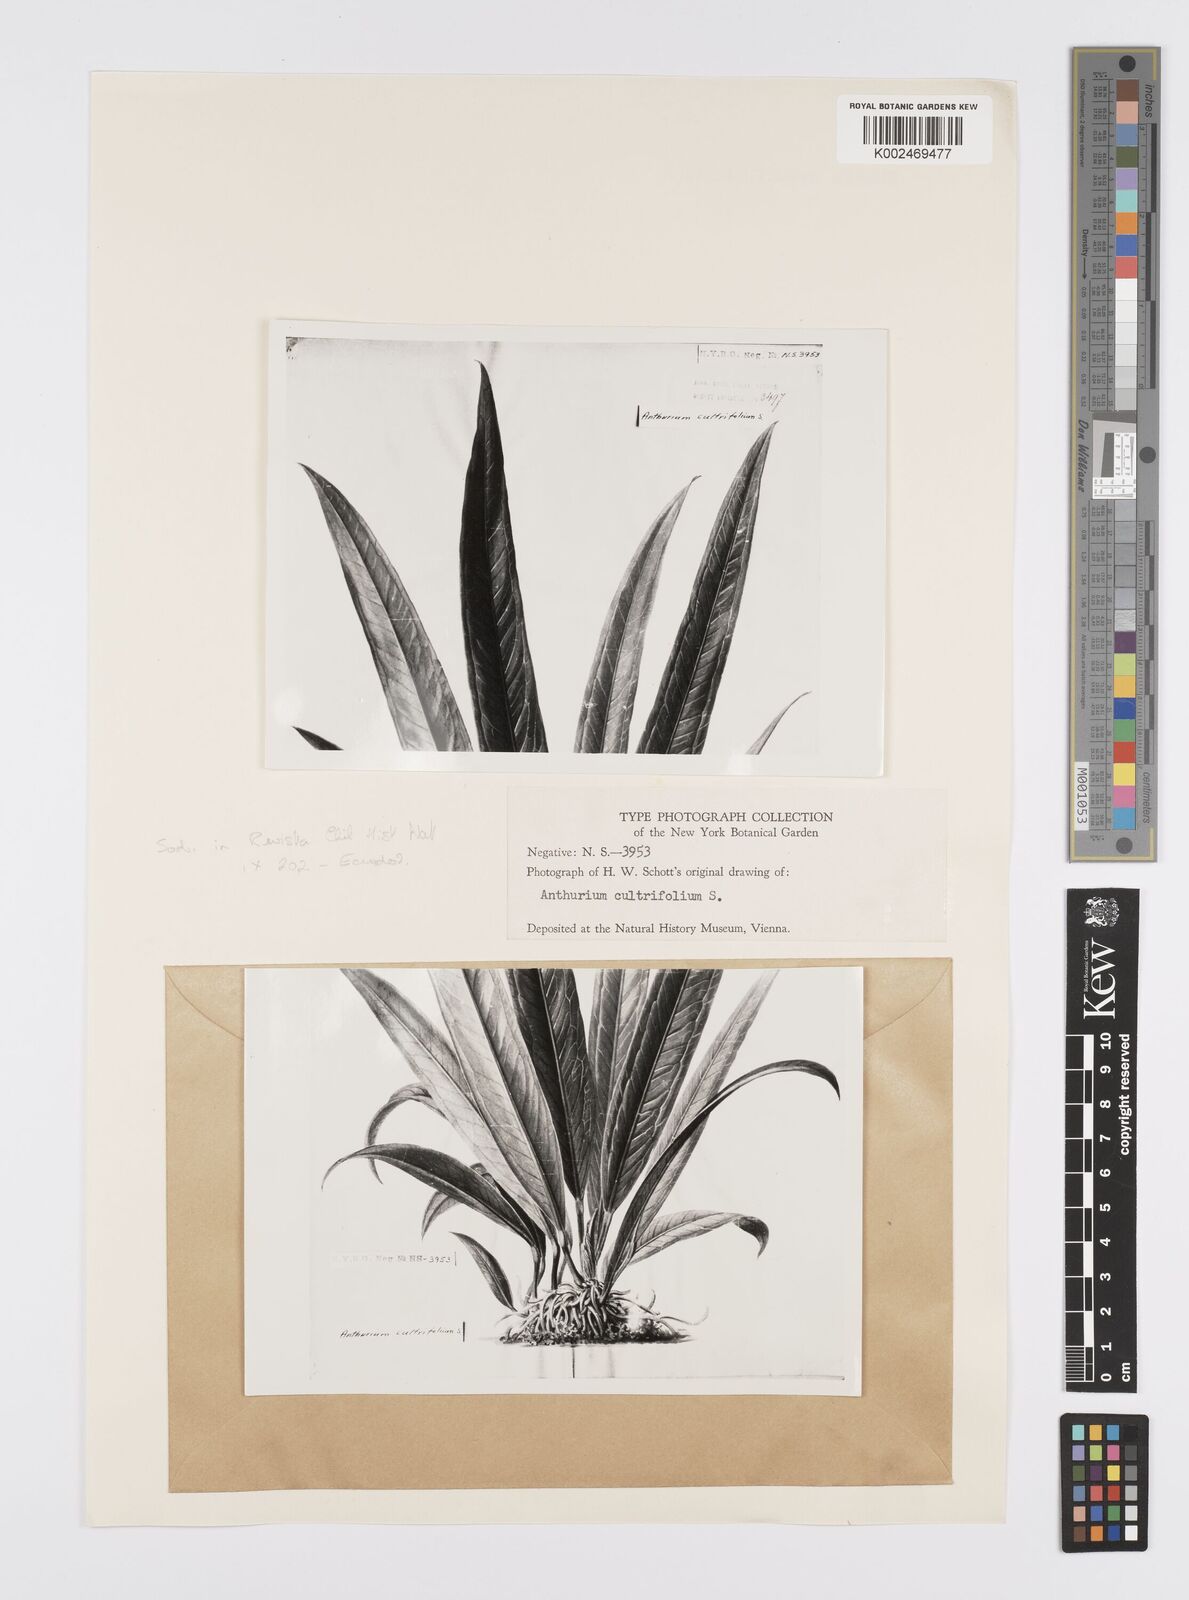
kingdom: Plantae
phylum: Tracheophyta
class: Liliopsida
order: Alismatales
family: Araceae
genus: Anthurium
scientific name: Anthurium illepidum
